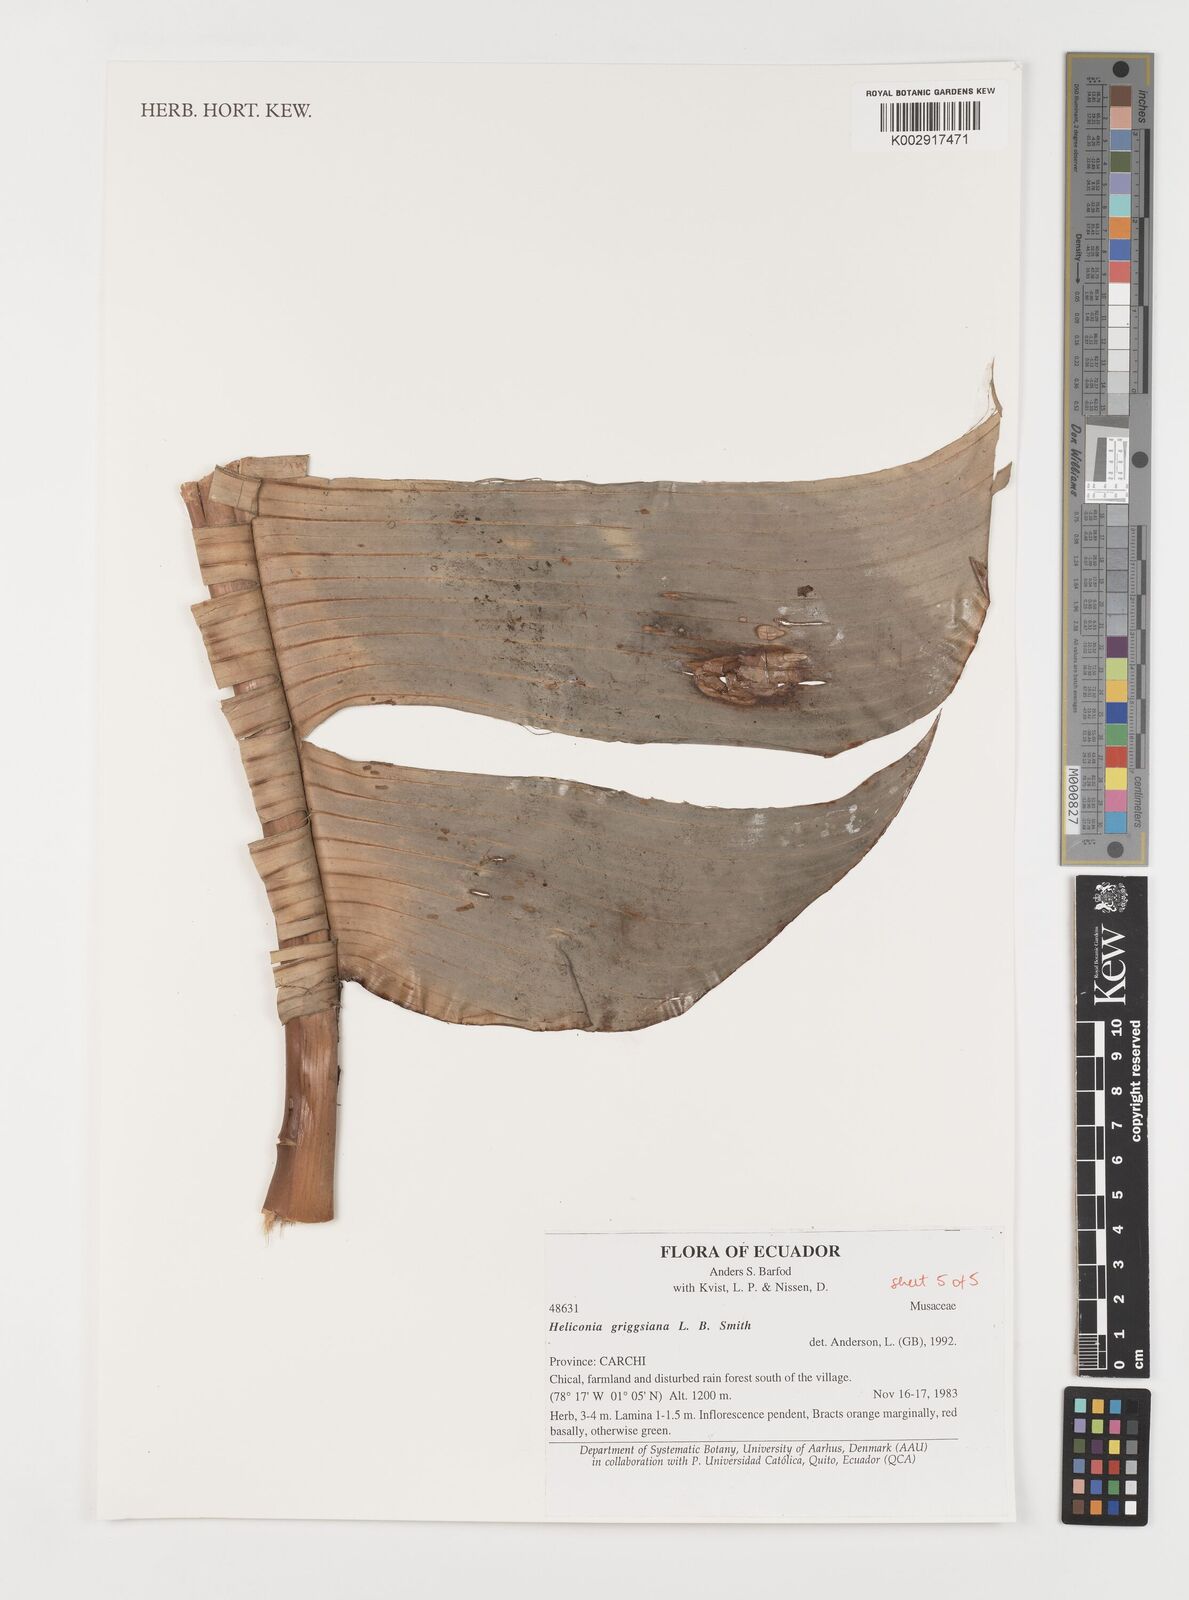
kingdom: Plantae
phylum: Tracheophyta
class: Liliopsida
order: Zingiberales
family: Heliconiaceae
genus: Heliconia
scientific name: Heliconia griggsiana
